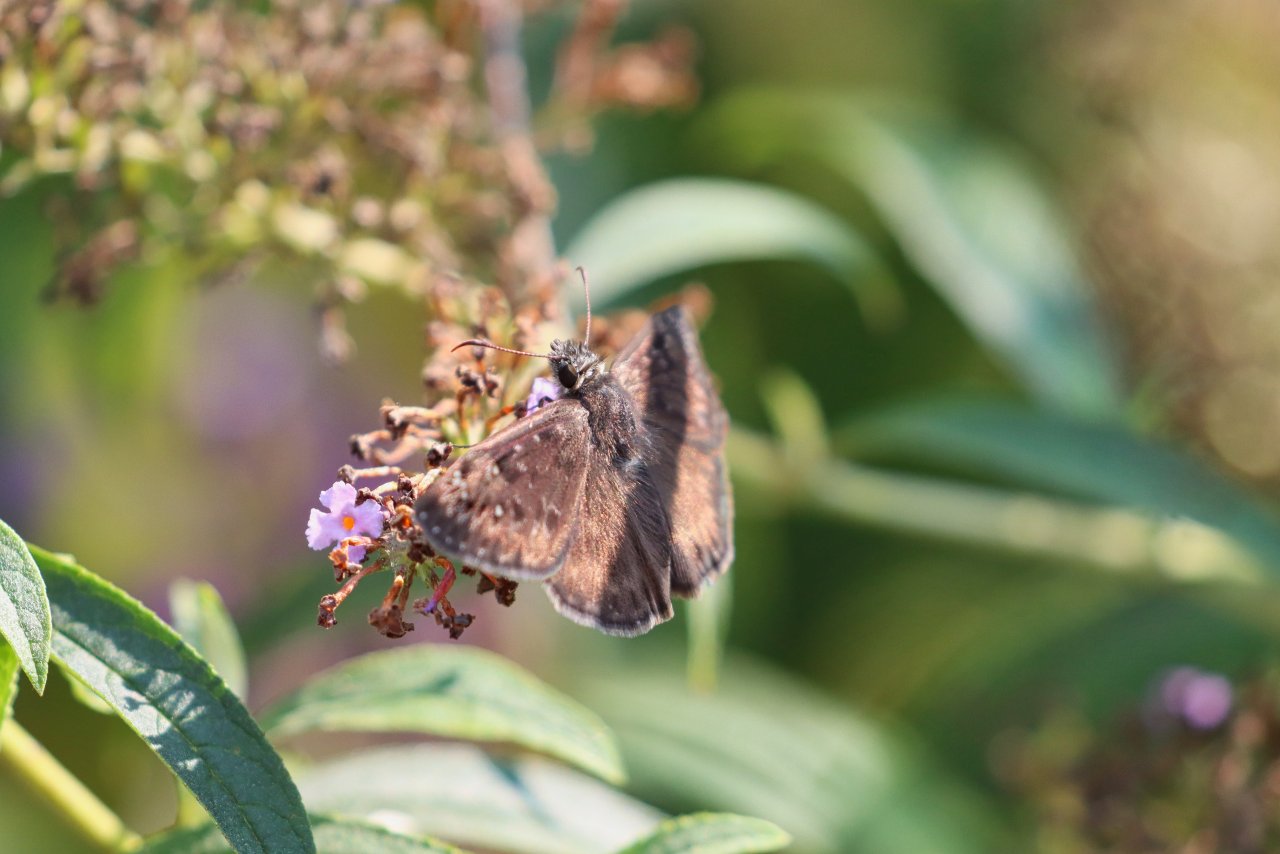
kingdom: Animalia
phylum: Arthropoda
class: Insecta
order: Lepidoptera
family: Hesperiidae
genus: Erynnis
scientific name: Erynnis
